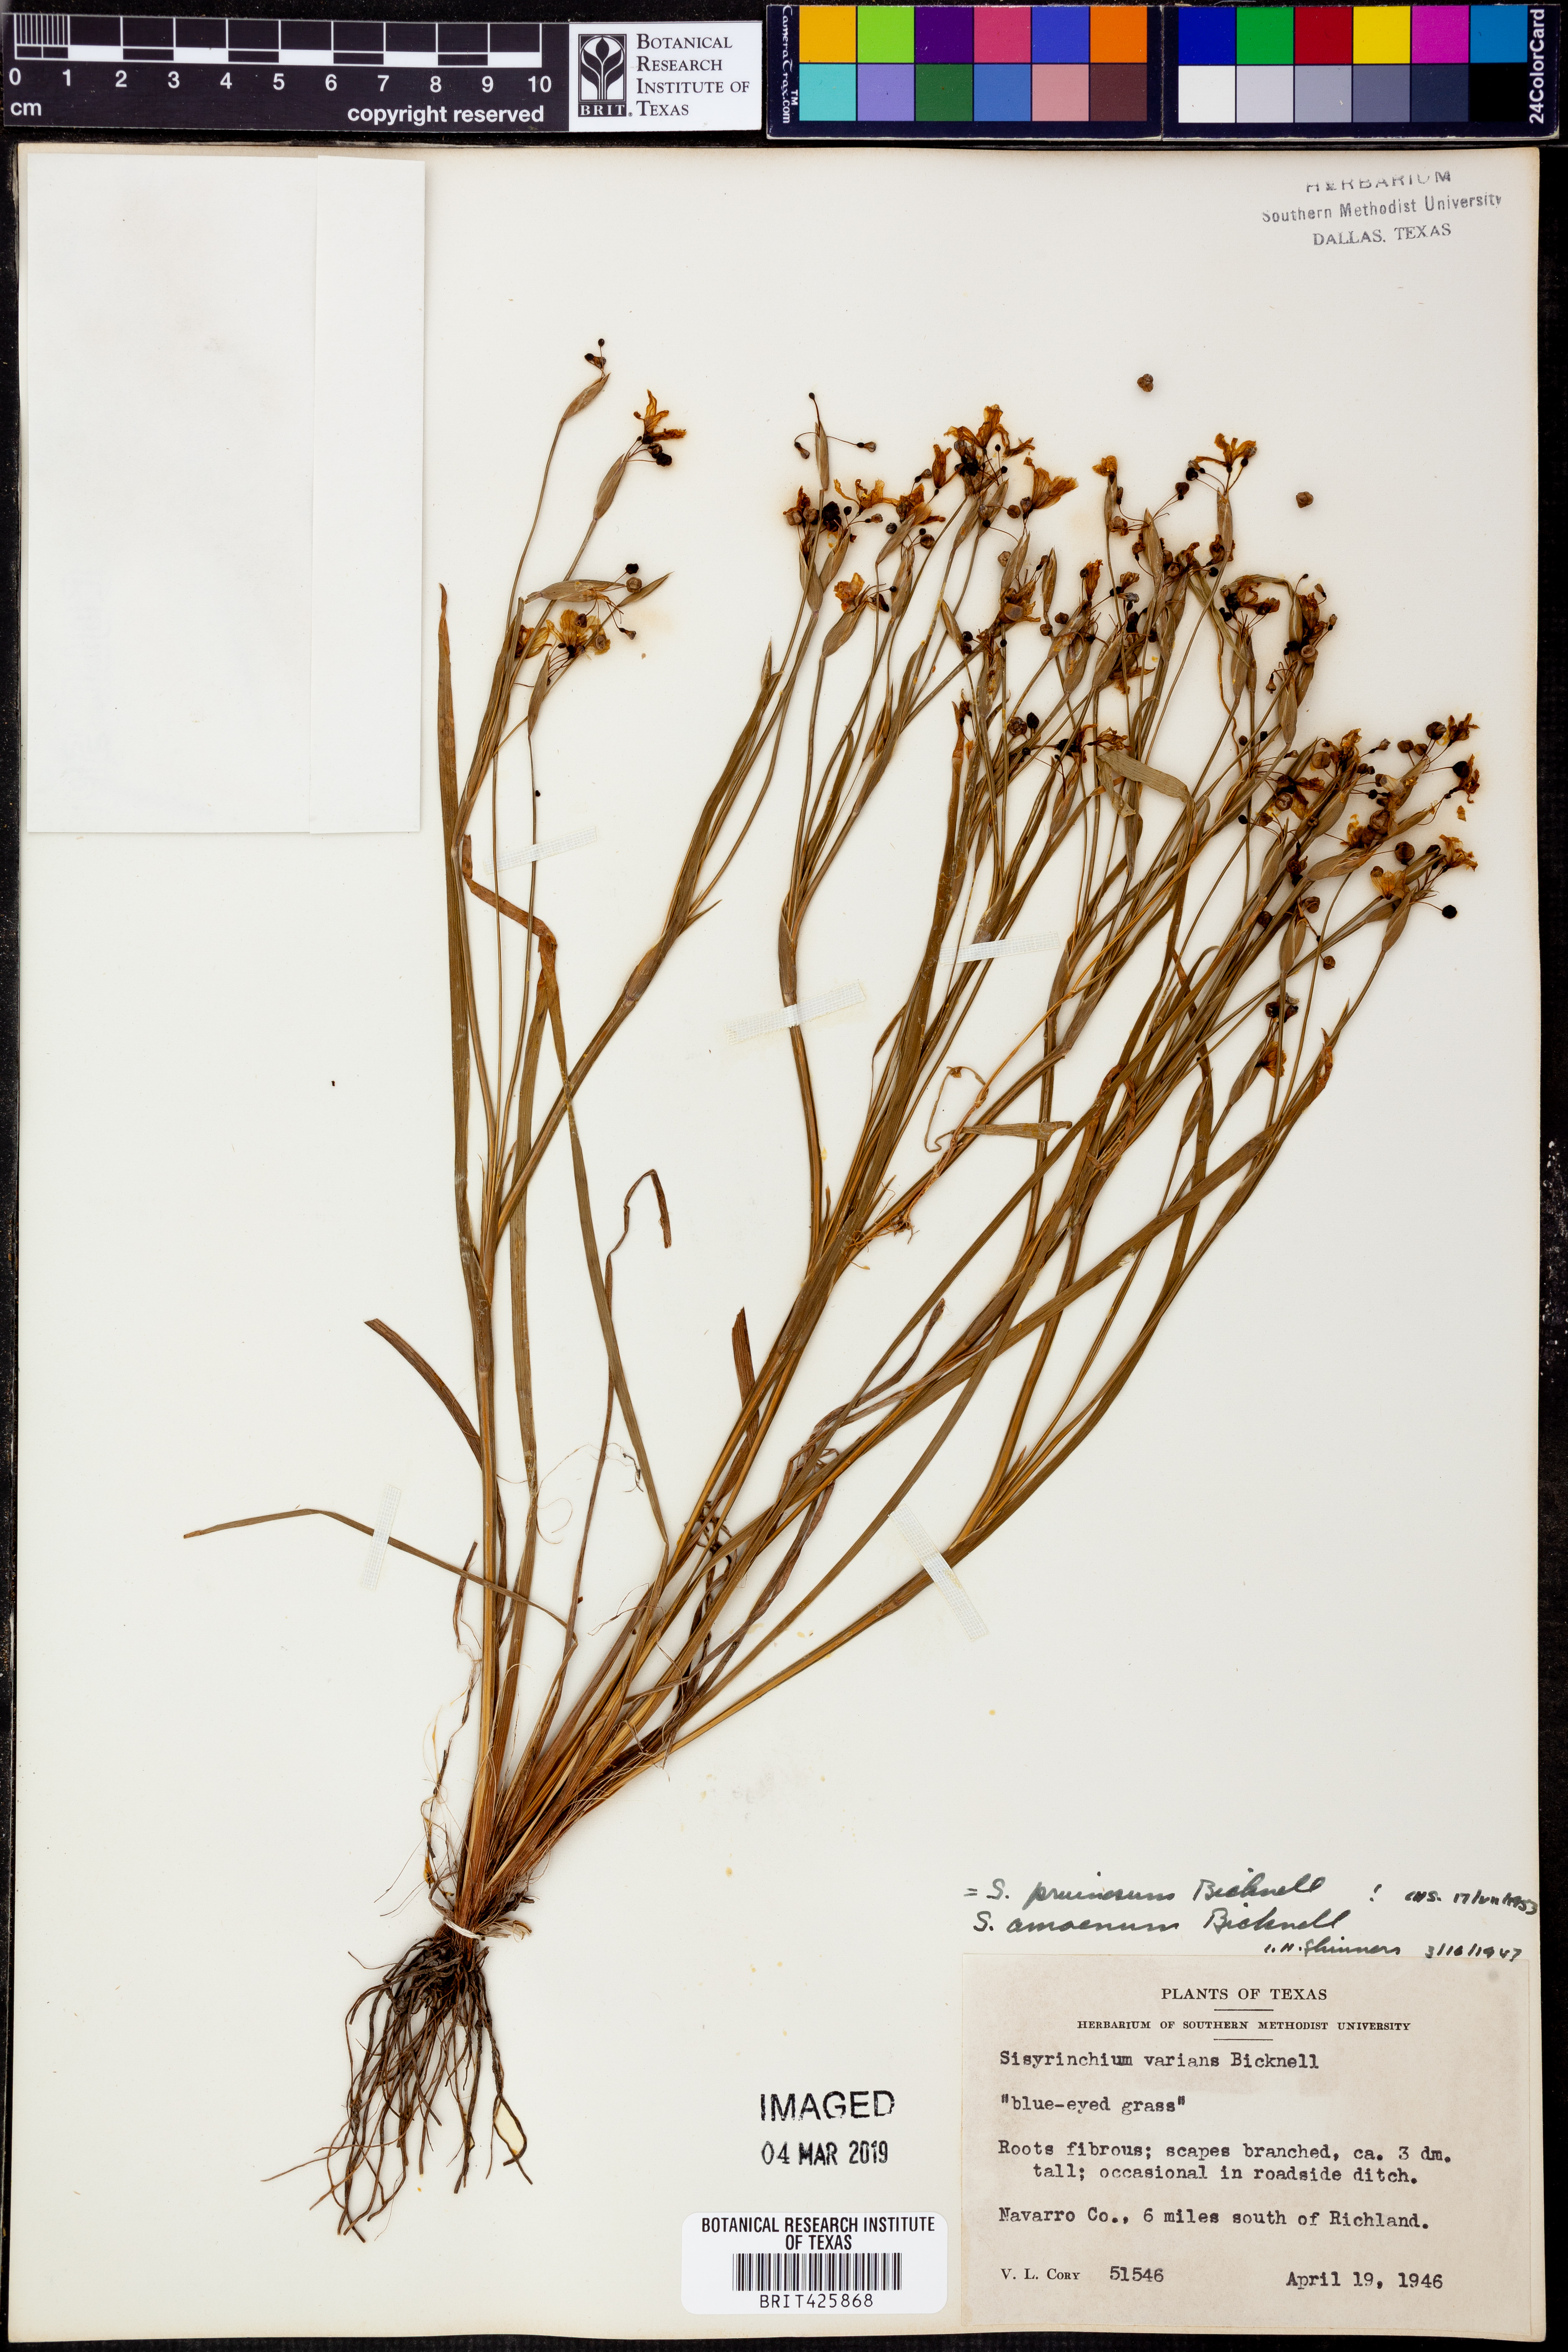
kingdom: Plantae
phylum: Tracheophyta
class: Liliopsida
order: Asparagales
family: Iridaceae
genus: Sisyrinchium
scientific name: Sisyrinchium pruinosum
